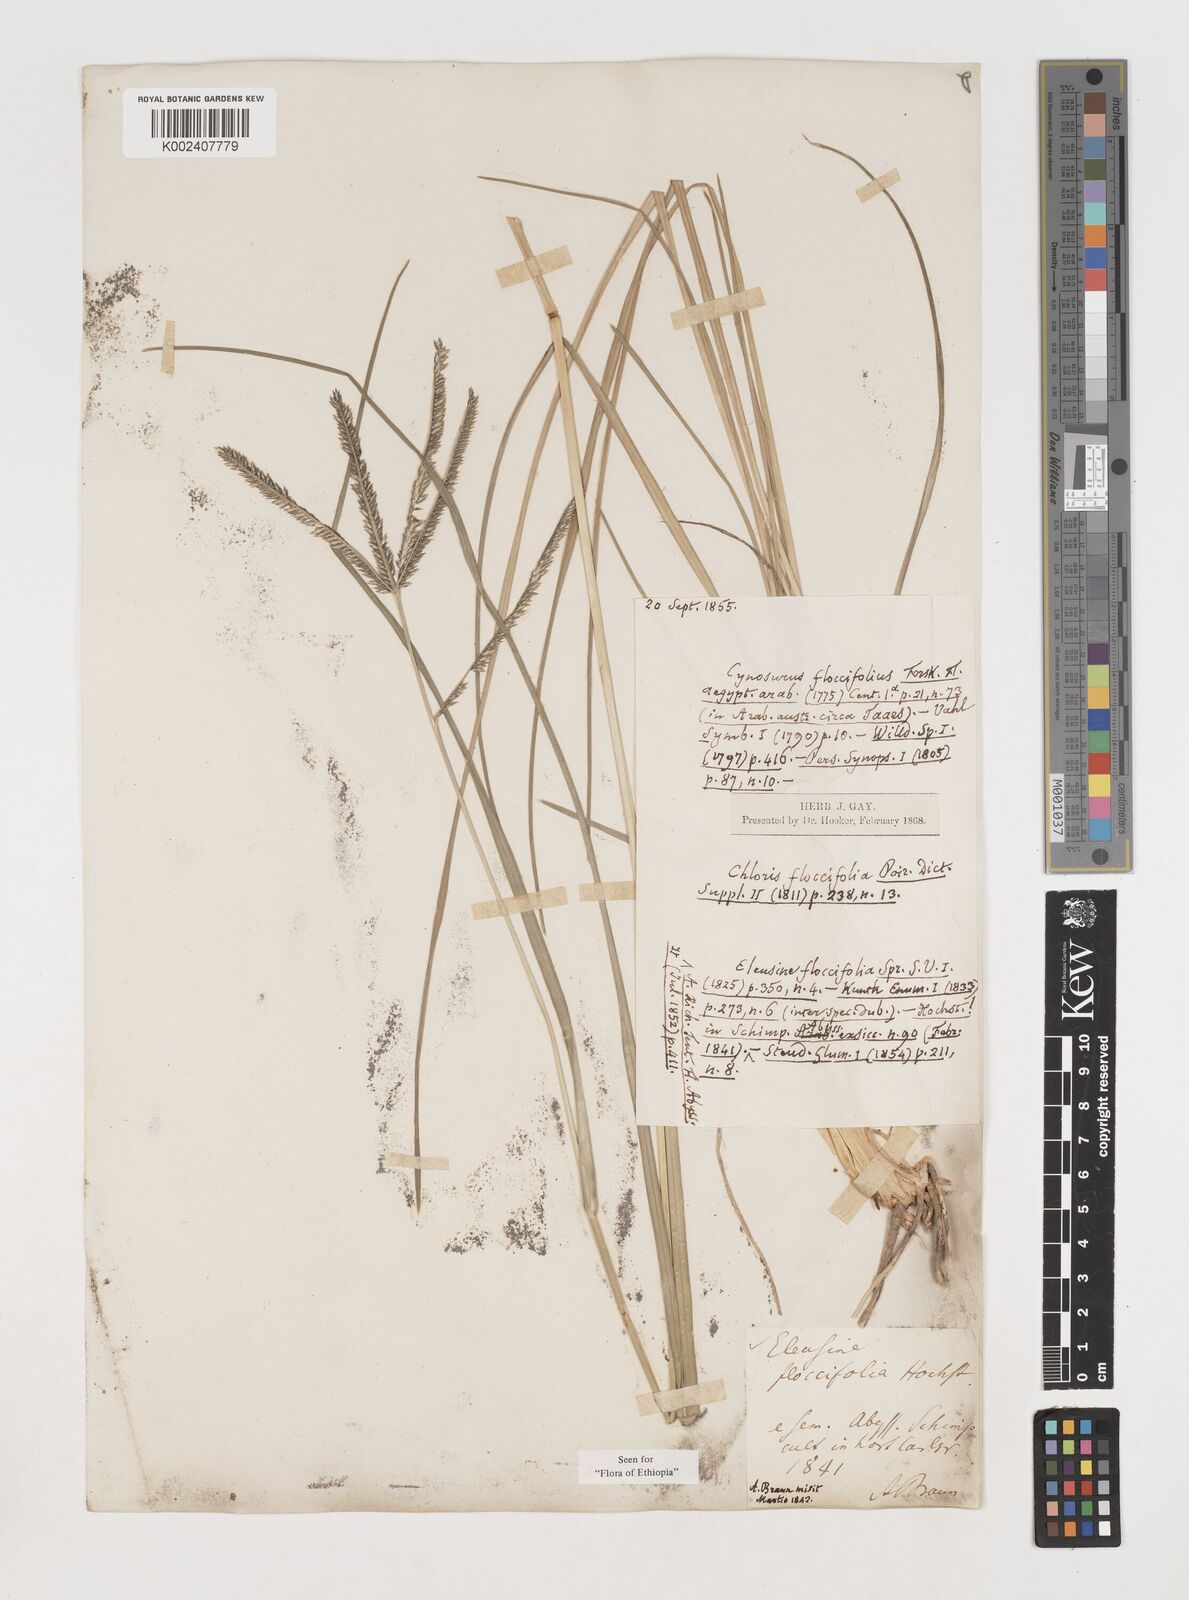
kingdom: Plantae
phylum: Tracheophyta
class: Liliopsida
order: Poales
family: Poaceae
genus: Eleusine
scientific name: Eleusine floccifolia
